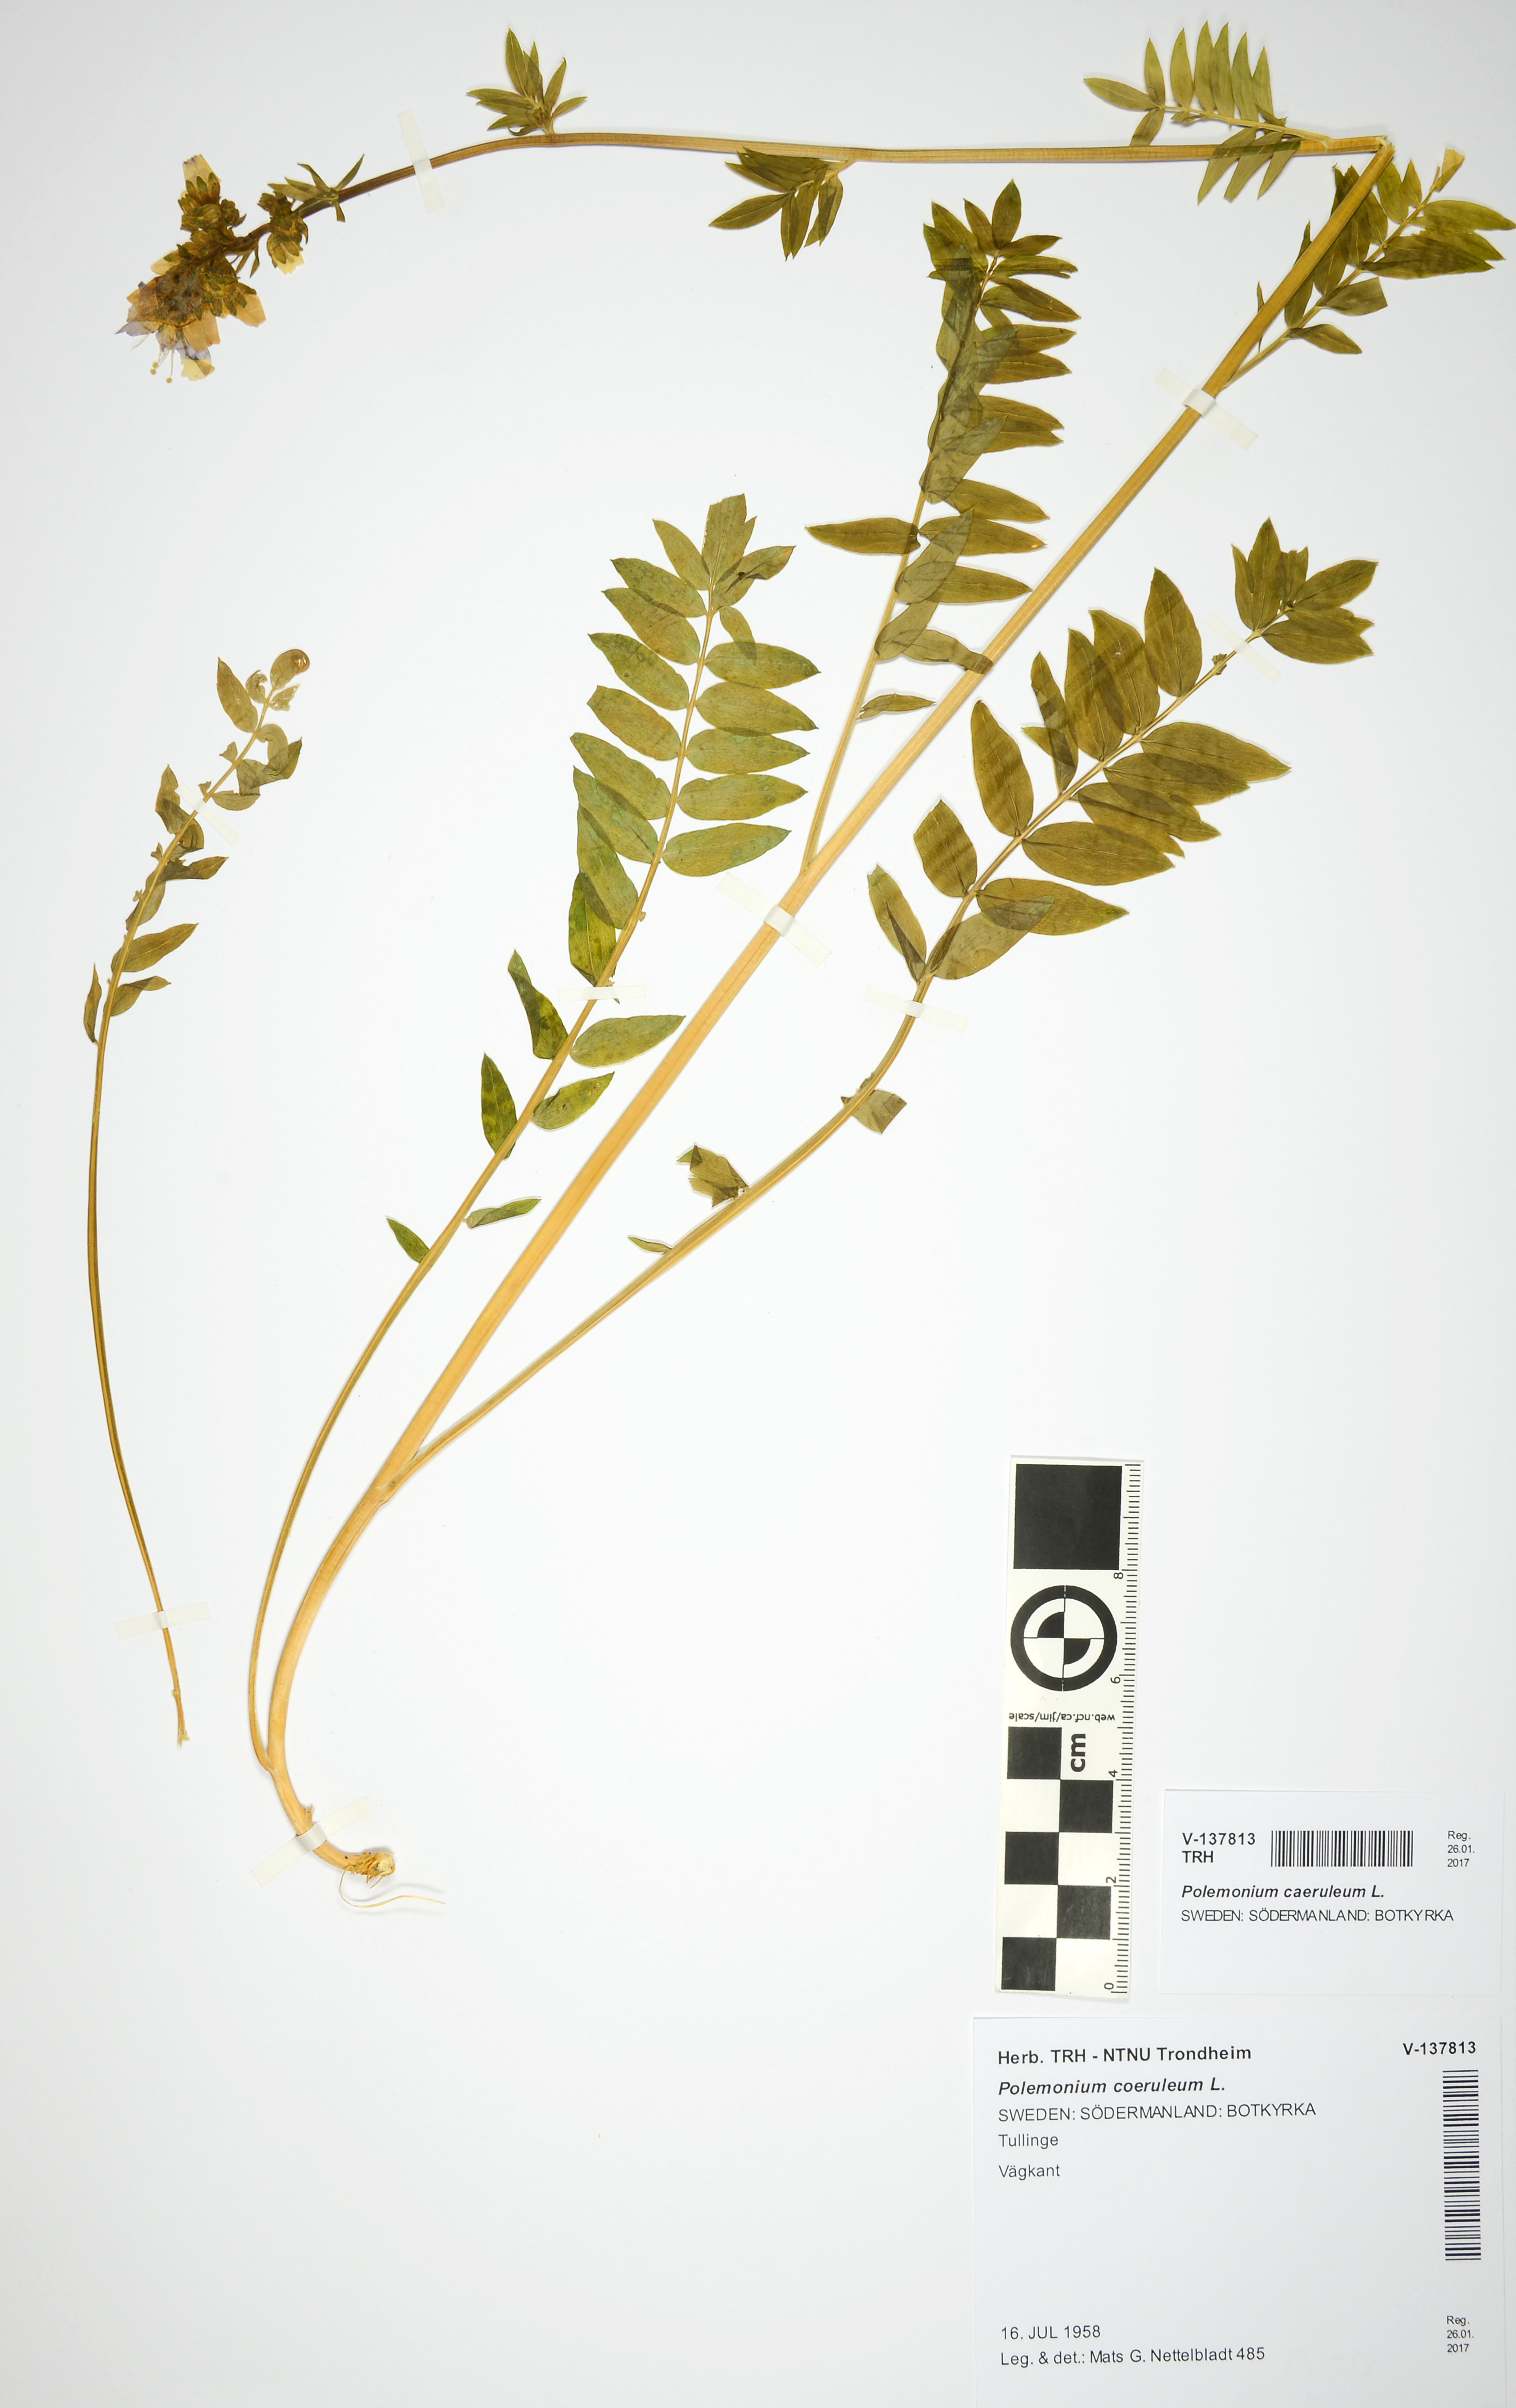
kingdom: Plantae
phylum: Tracheophyta
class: Magnoliopsida
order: Ericales
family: Polemoniaceae
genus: Polemonium
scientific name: Polemonium caeruleum
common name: Jacob's-ladder
